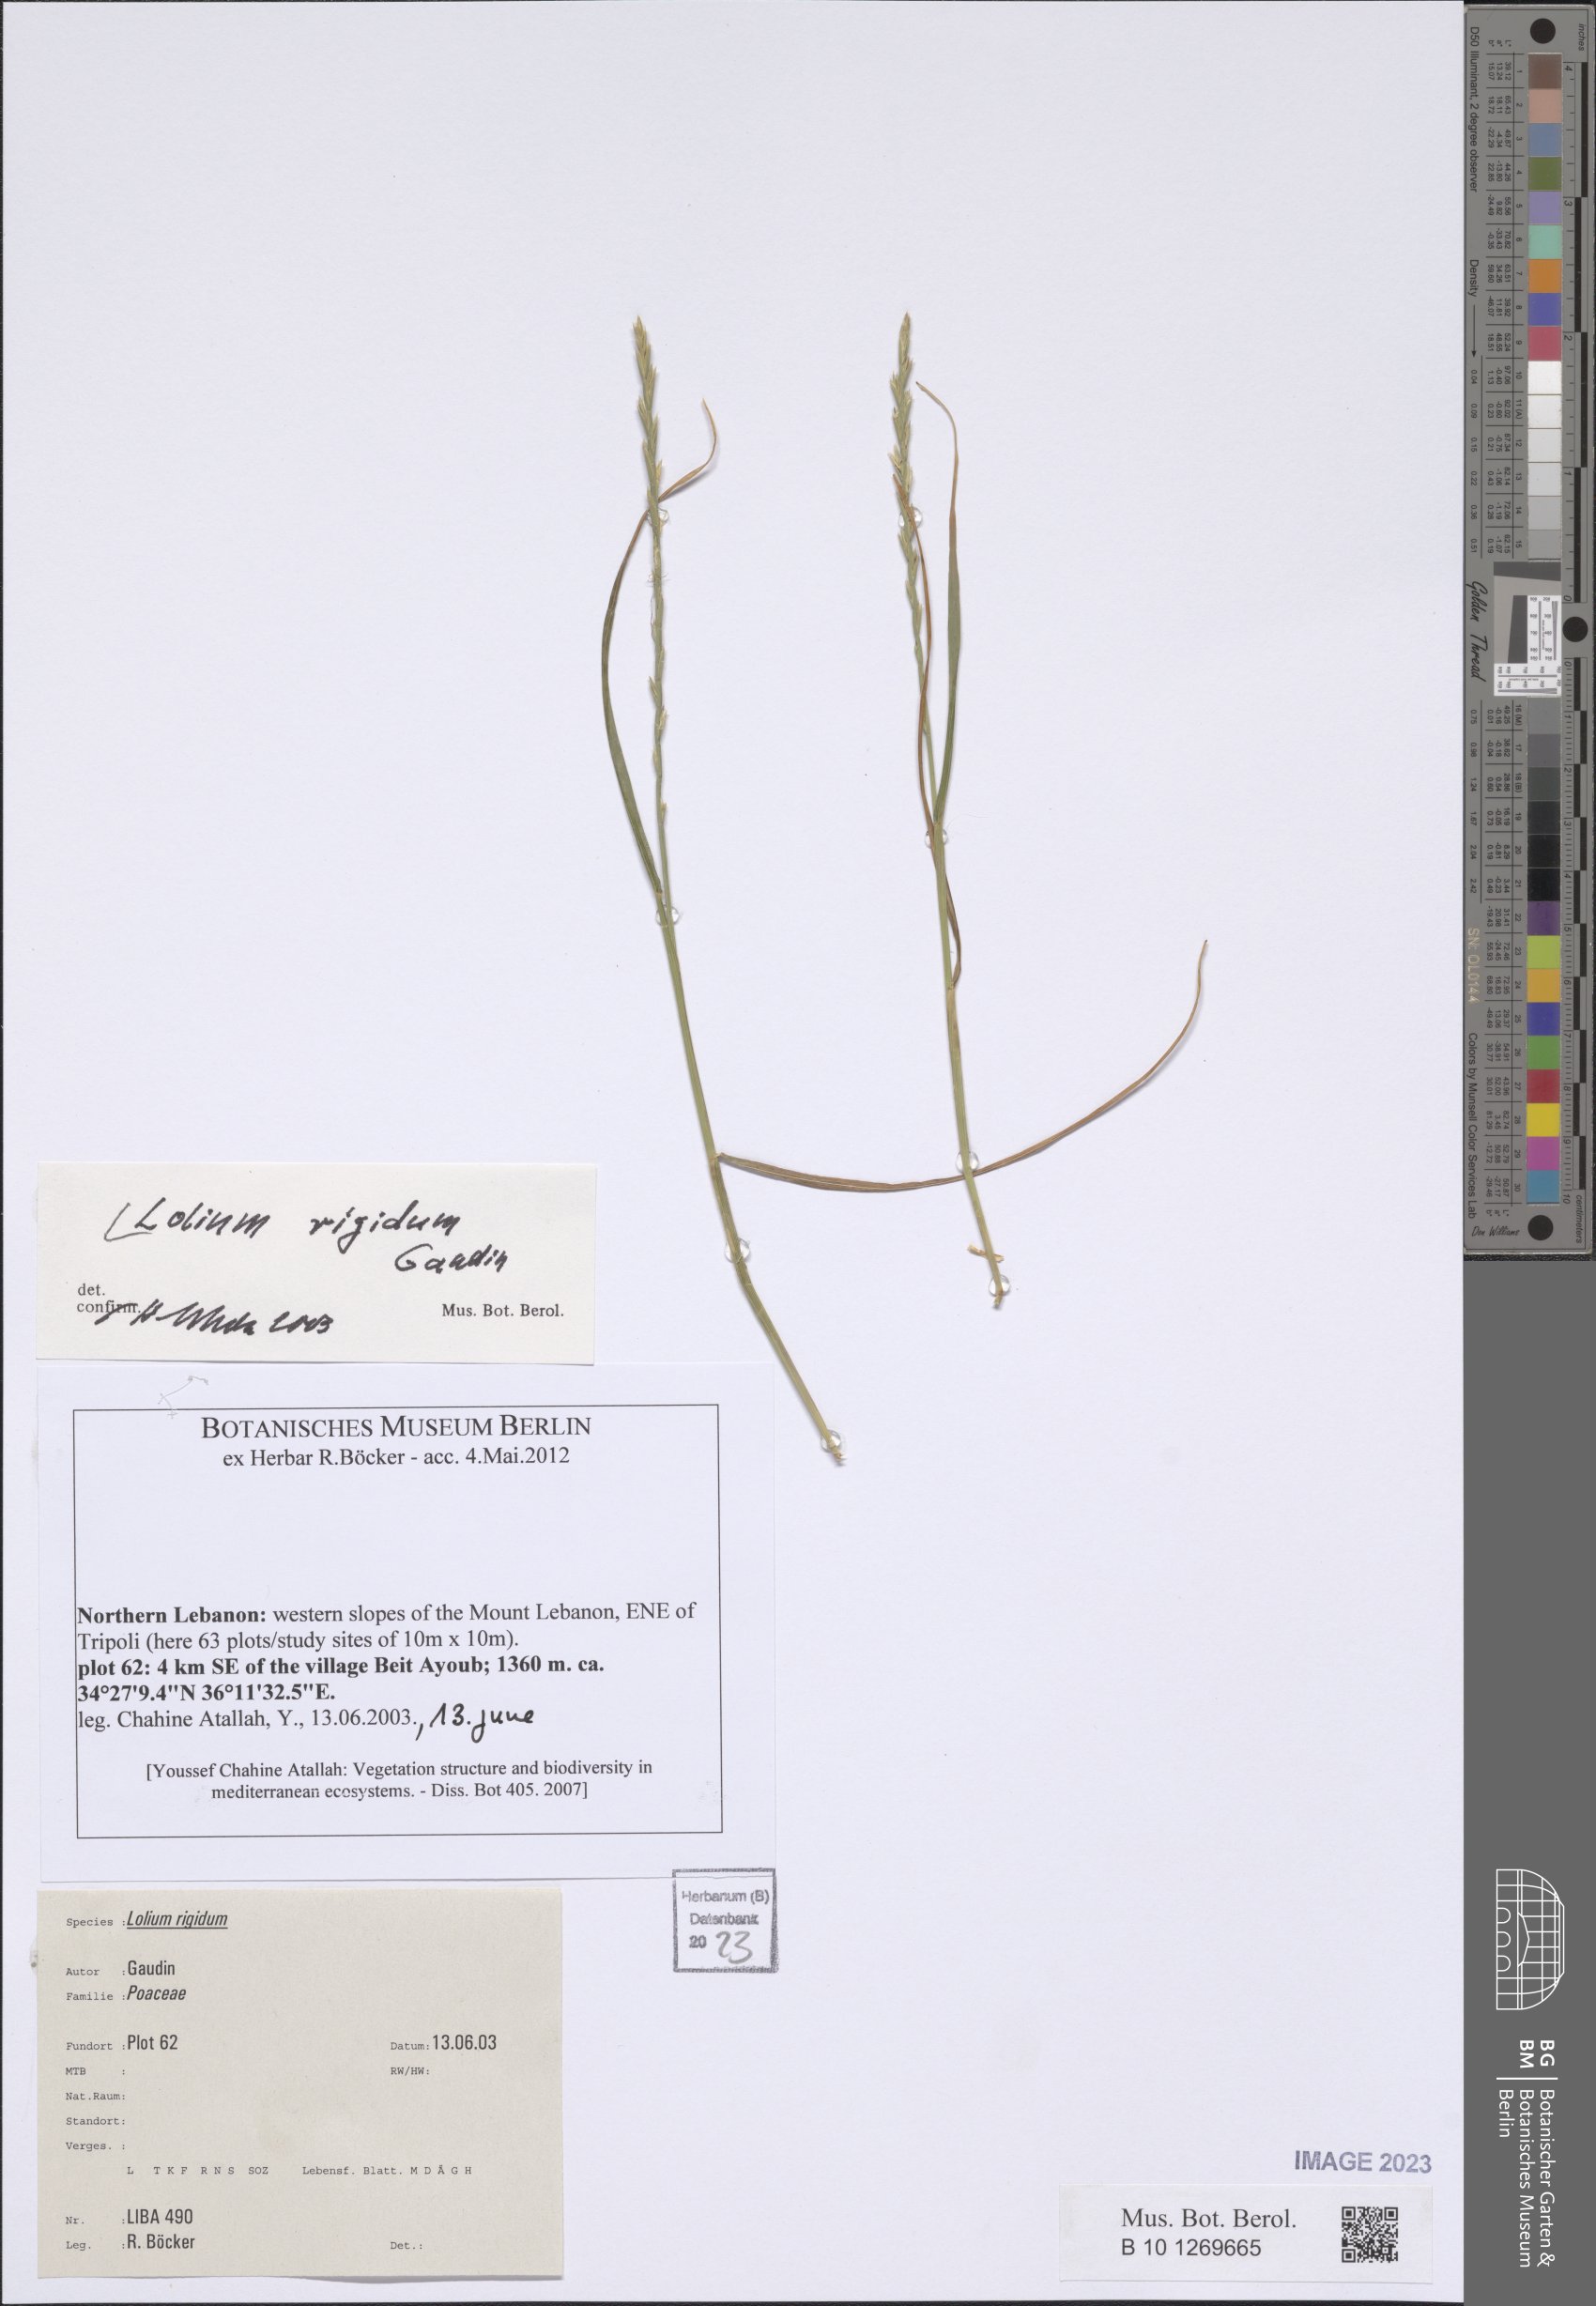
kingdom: Plantae
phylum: Tracheophyta
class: Liliopsida
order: Poales
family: Poaceae
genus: Lolium
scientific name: Lolium rigidum
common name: Wimmera ryegrass
